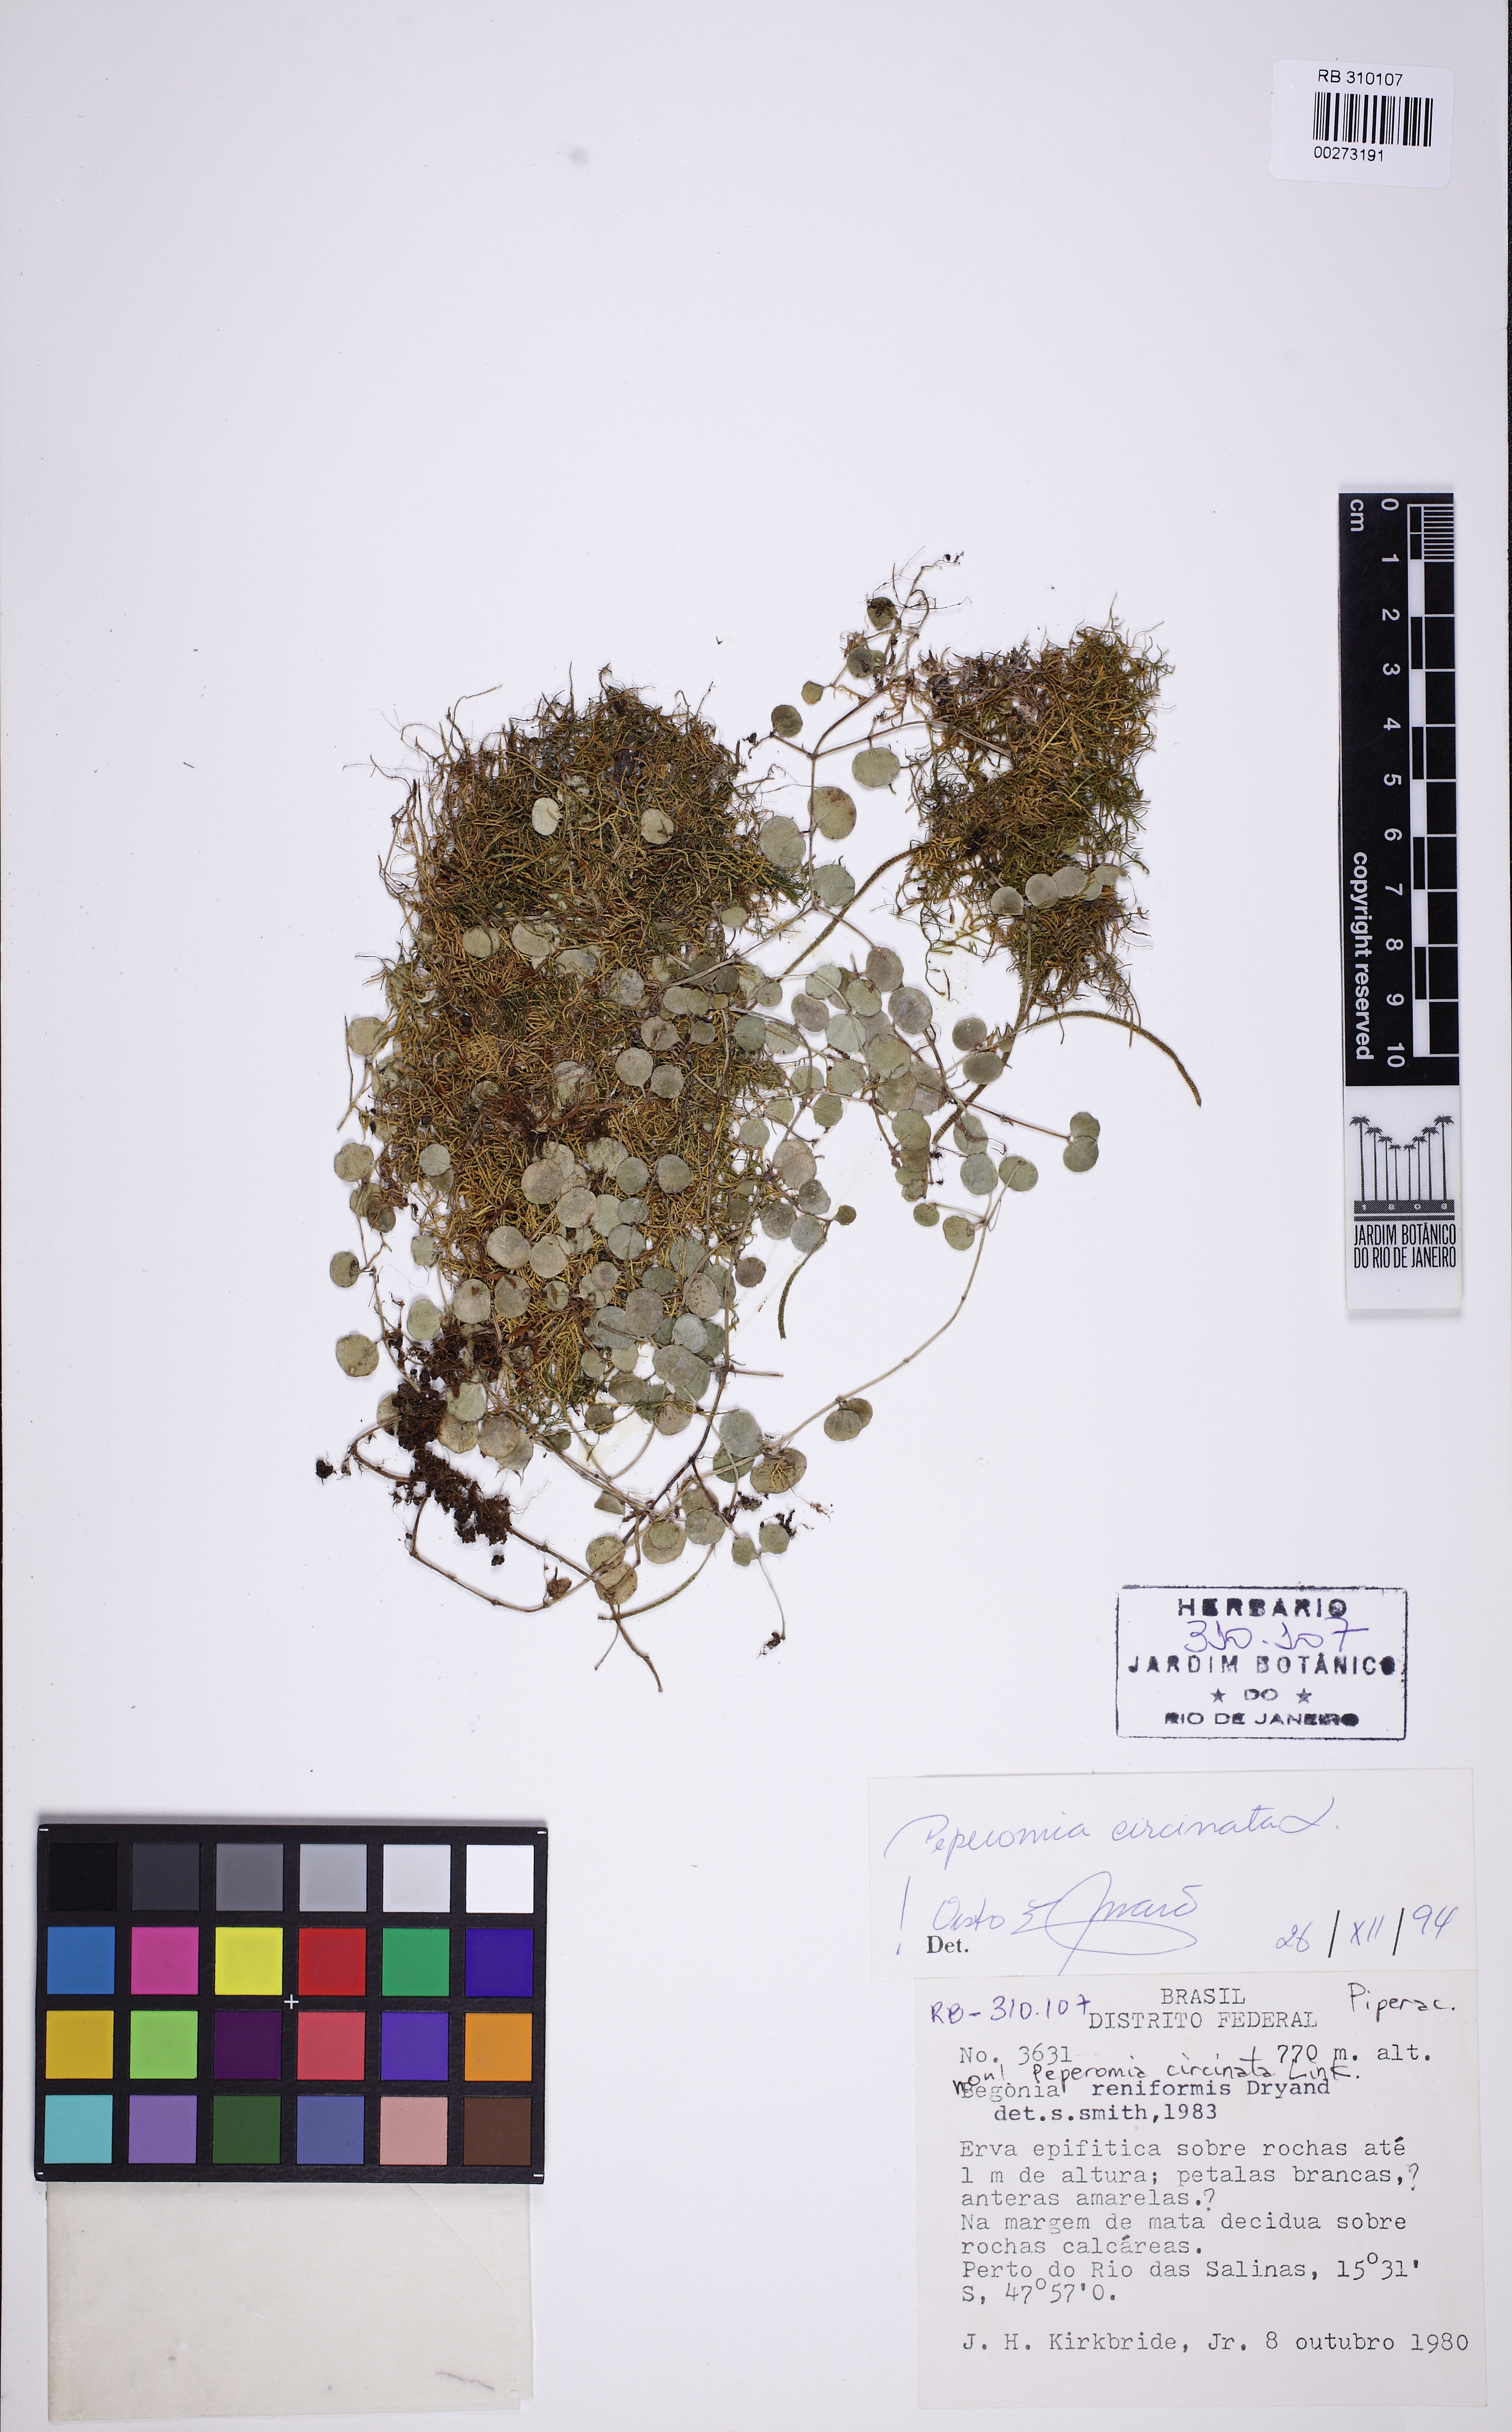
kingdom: Plantae
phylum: Tracheophyta
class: Magnoliopsida
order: Piperales
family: Piperaceae
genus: Peperomia
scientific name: Peperomia circinnata
